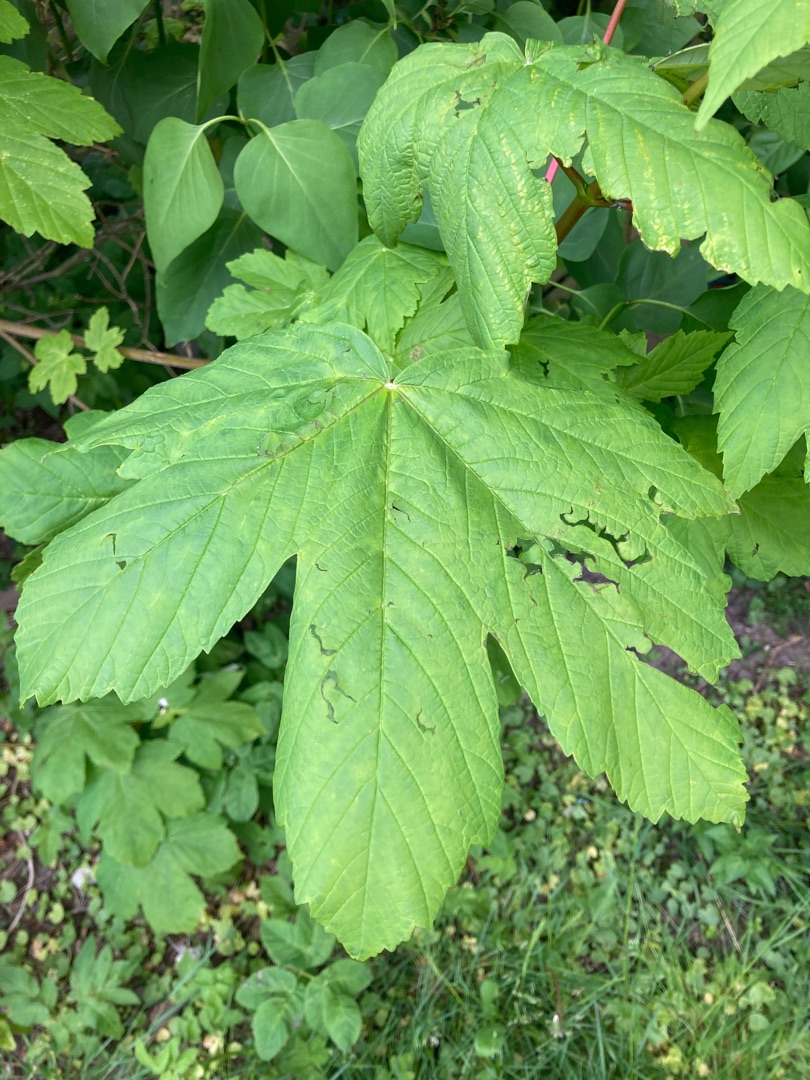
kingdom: Plantae
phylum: Tracheophyta
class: Magnoliopsida
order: Sapindales
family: Sapindaceae
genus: Acer
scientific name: Acer pseudoplatanus
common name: Ahorn
